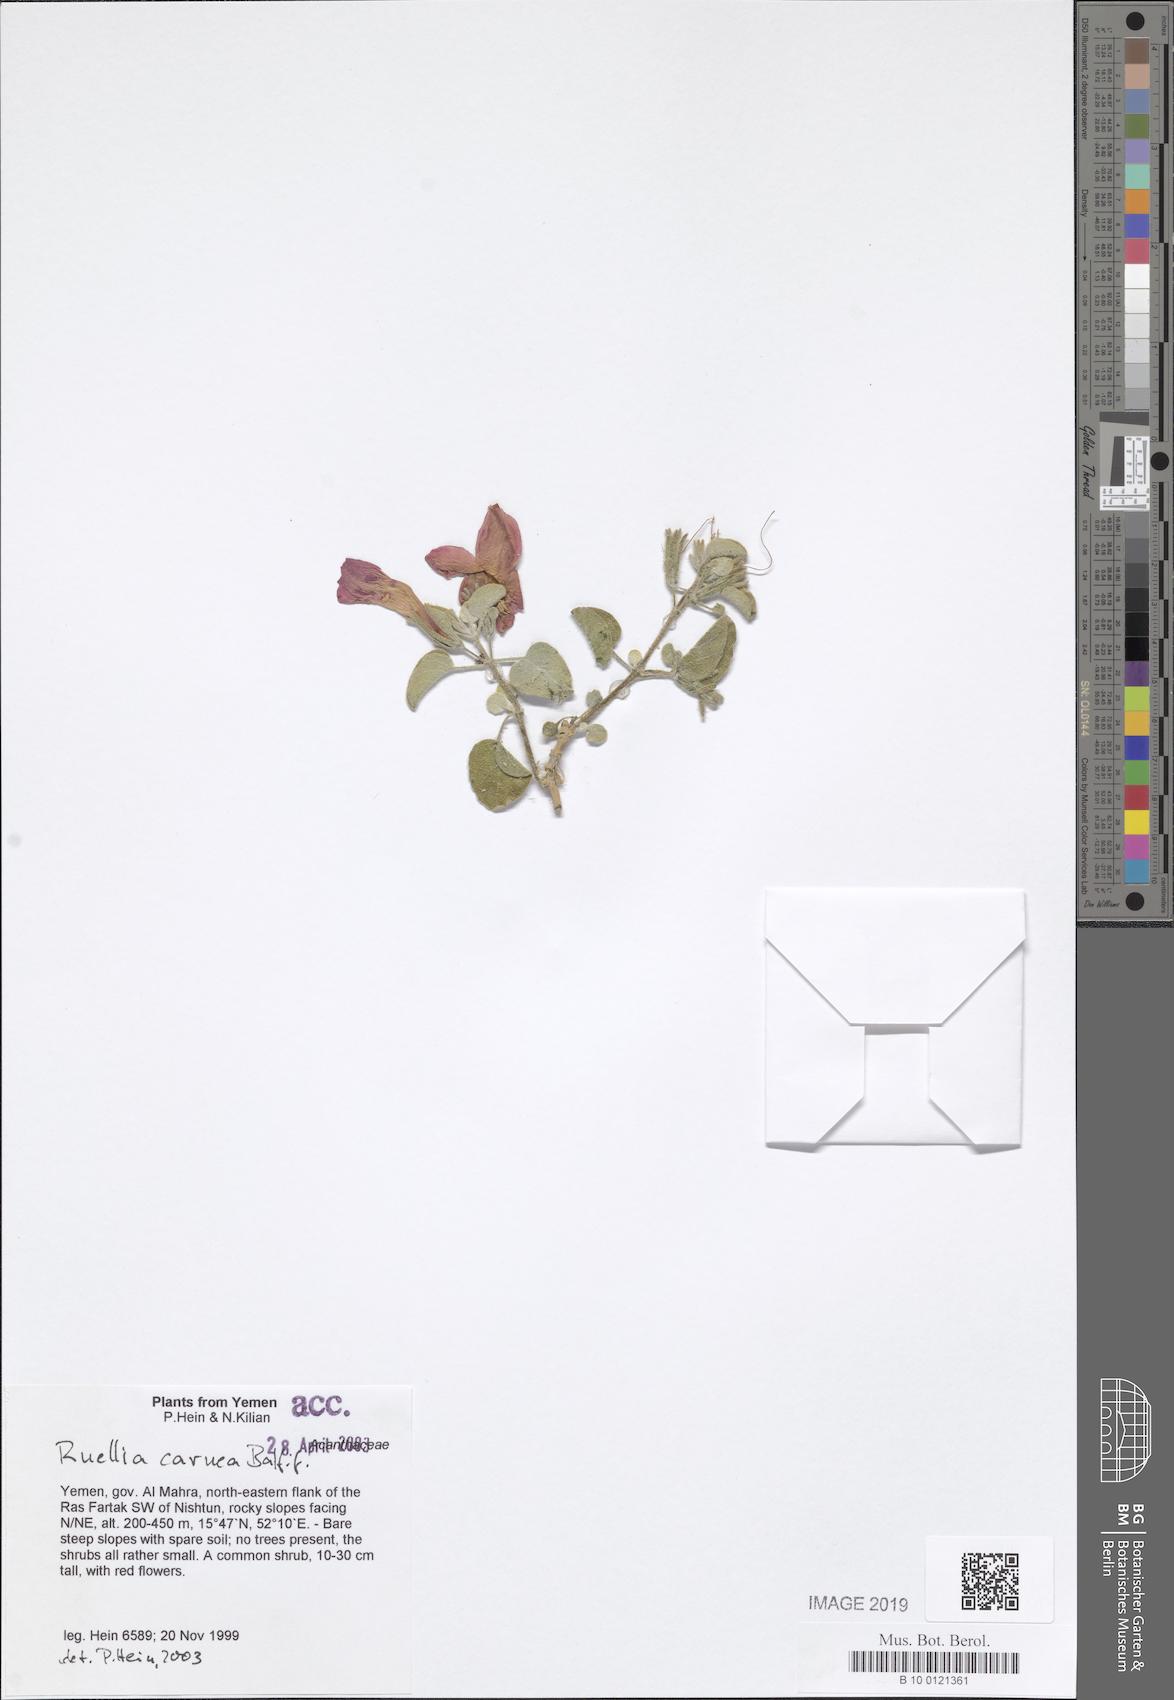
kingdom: Plantae
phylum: Tracheophyta
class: Magnoliopsida
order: Lamiales
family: Acanthaceae
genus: Ruellia
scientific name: Ruellia carnea
